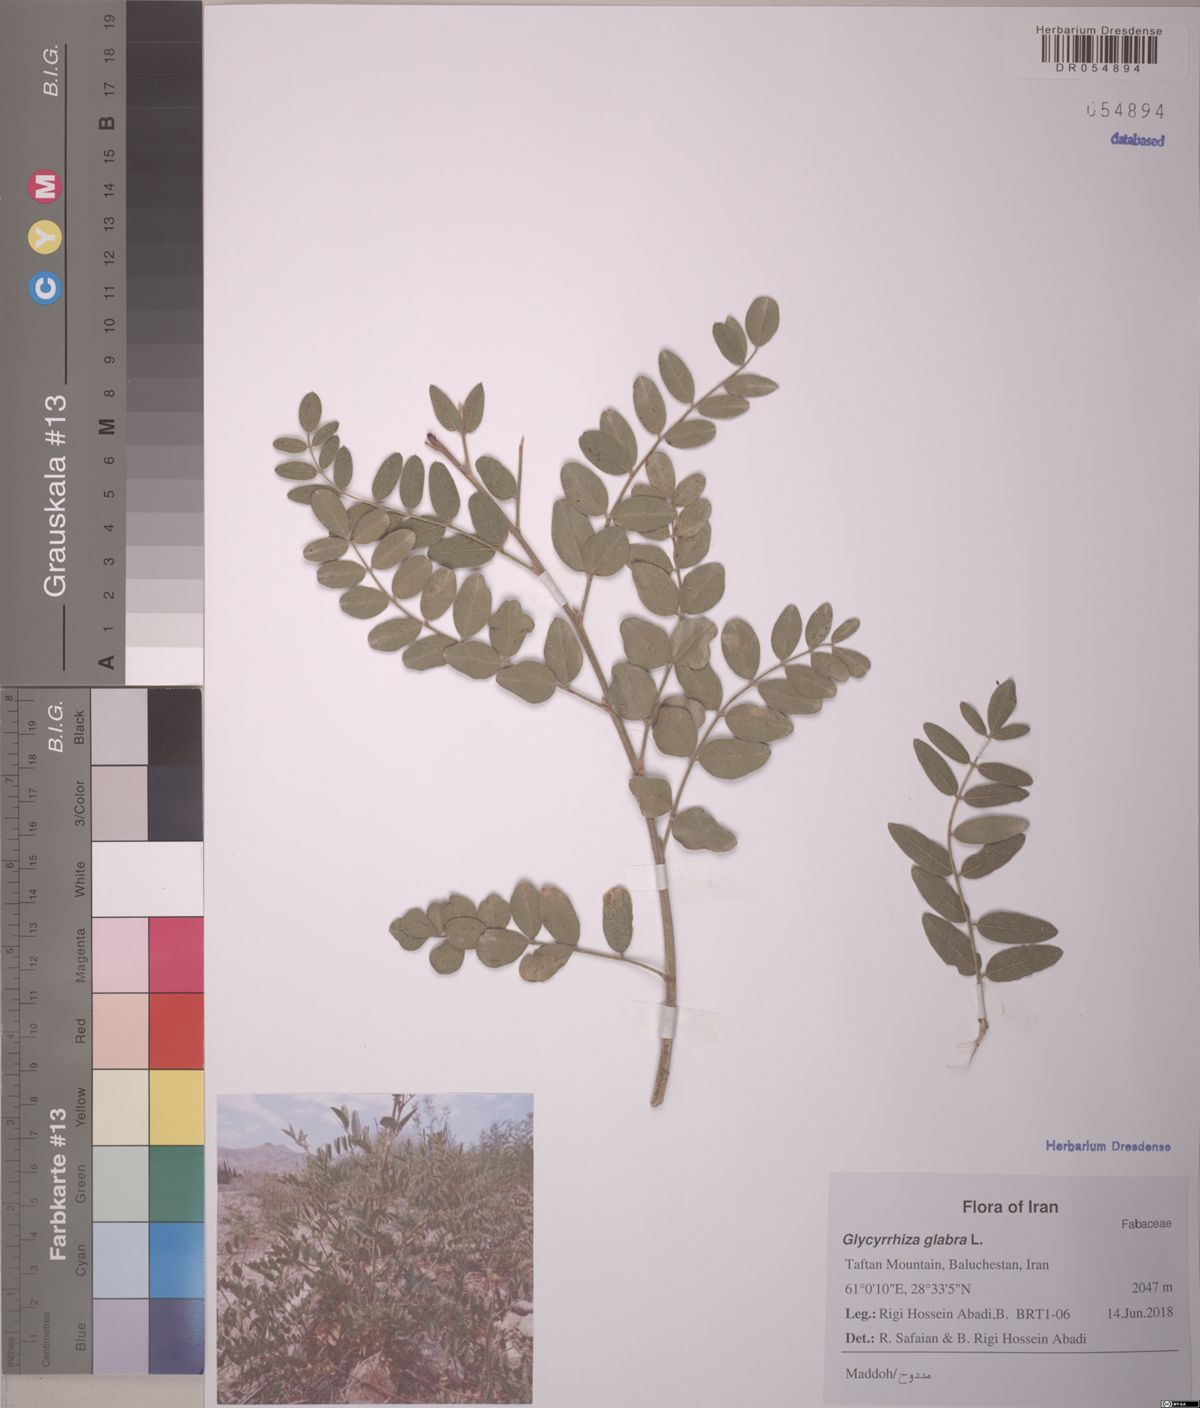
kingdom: Plantae
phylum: Tracheophyta
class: Magnoliopsida
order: Fabales
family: Fabaceae
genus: Glycyrrhiza
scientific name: Glycyrrhiza glabra
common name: Liquorice
